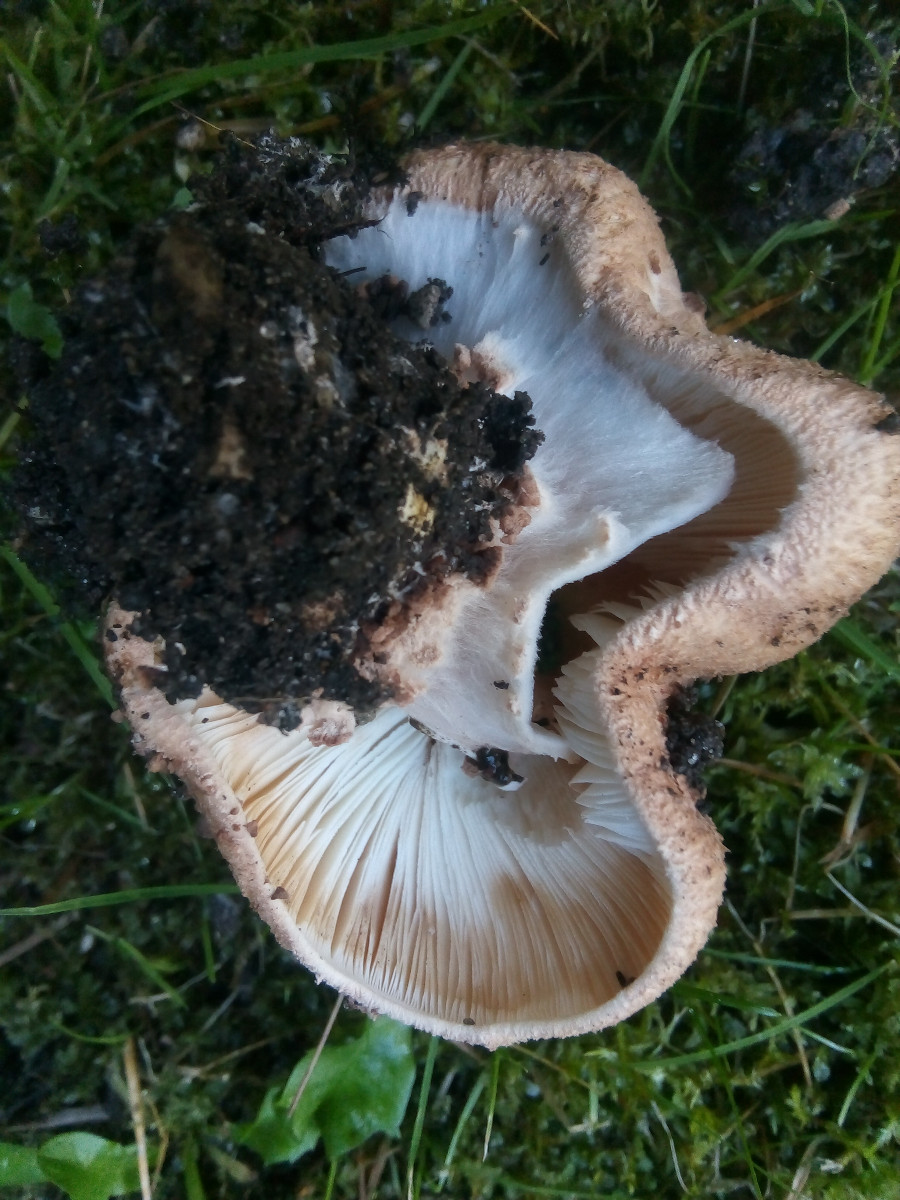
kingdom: Fungi
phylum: Basidiomycota
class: Agaricomycetes
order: Agaricales
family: Agaricaceae
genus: Echinoderma
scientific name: Echinoderma asperum
